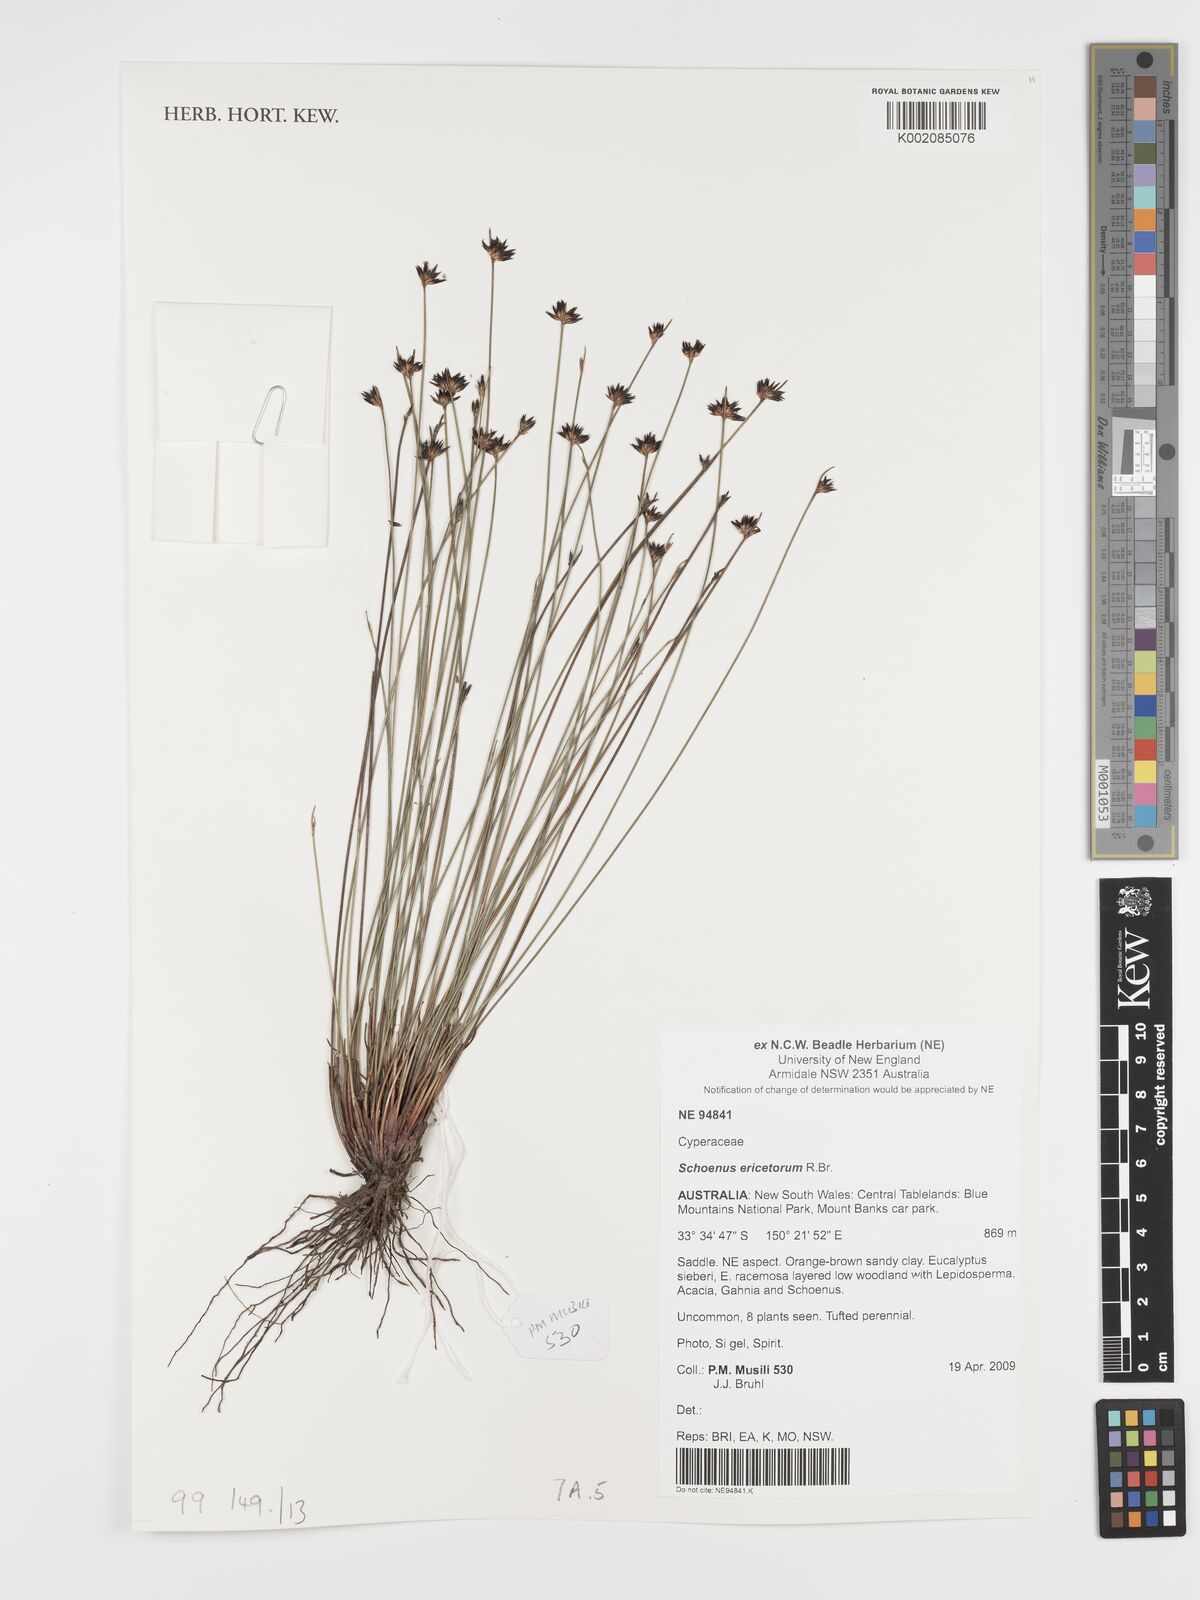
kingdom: Plantae
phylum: Tracheophyta
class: Liliopsida
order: Poales
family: Cyperaceae
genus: Schoenus
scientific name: Schoenus ericetorum
